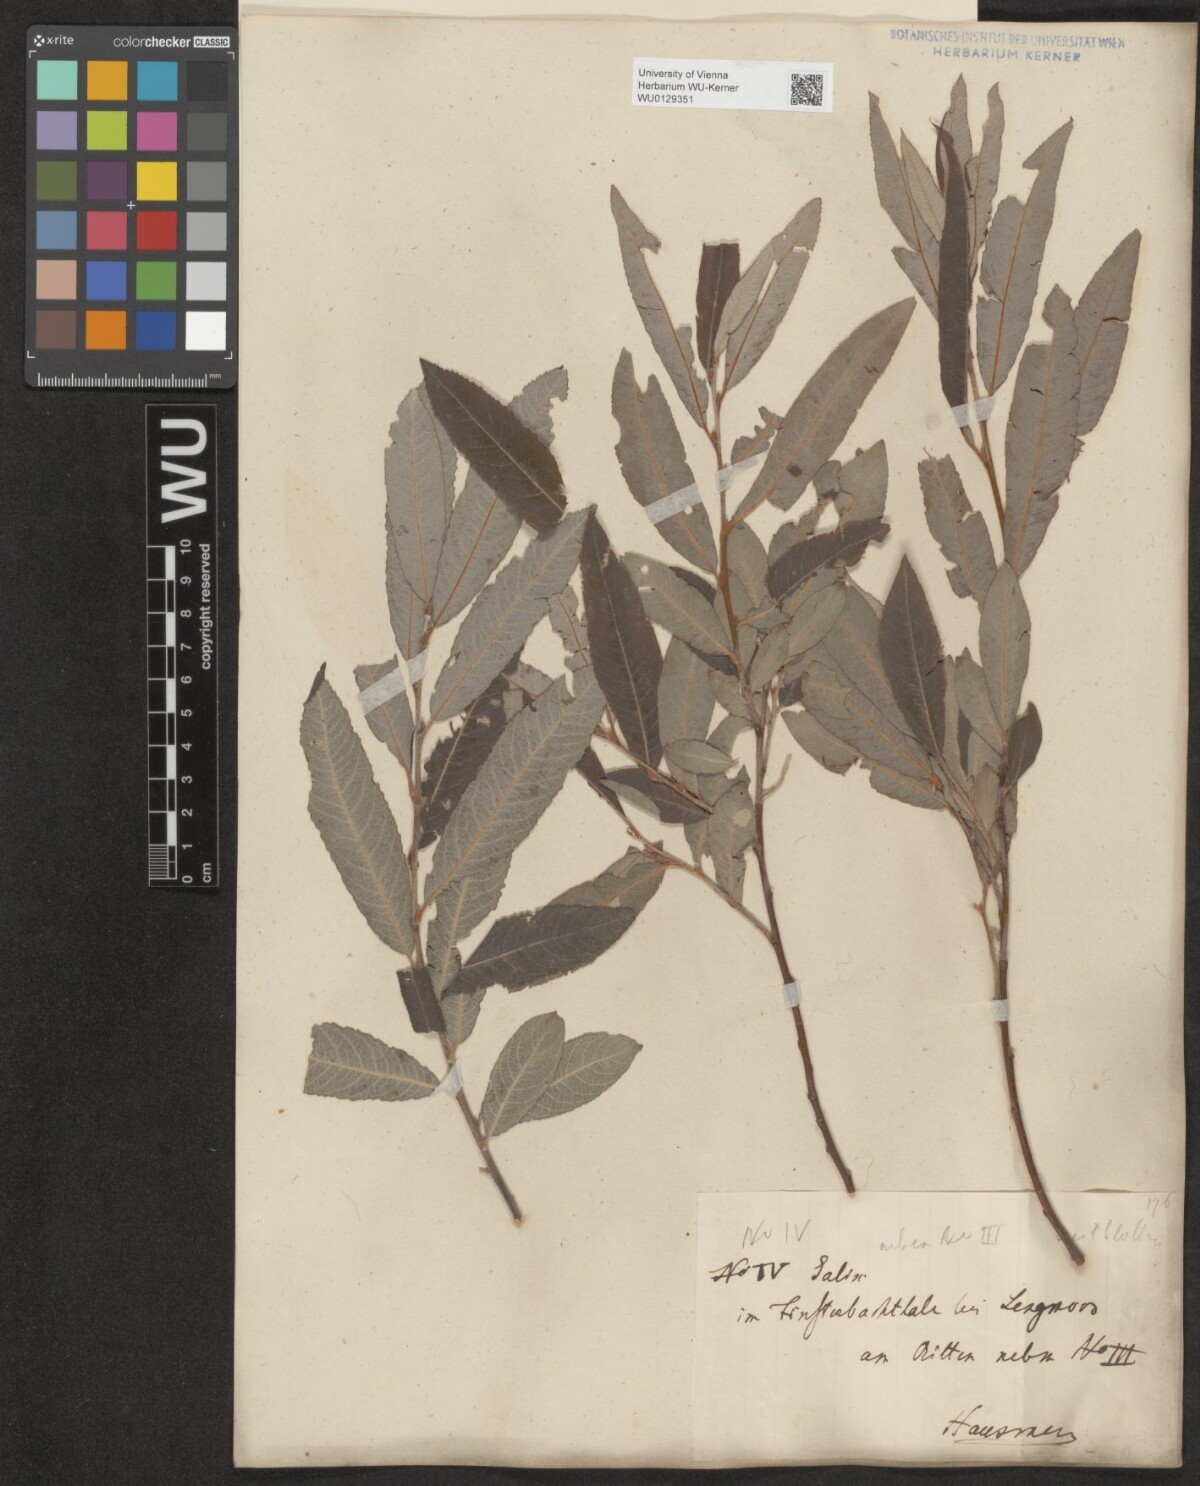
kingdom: Plantae
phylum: Tracheophyta
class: Magnoliopsida
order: Malpighiales
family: Salicaceae
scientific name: Salicaceae
